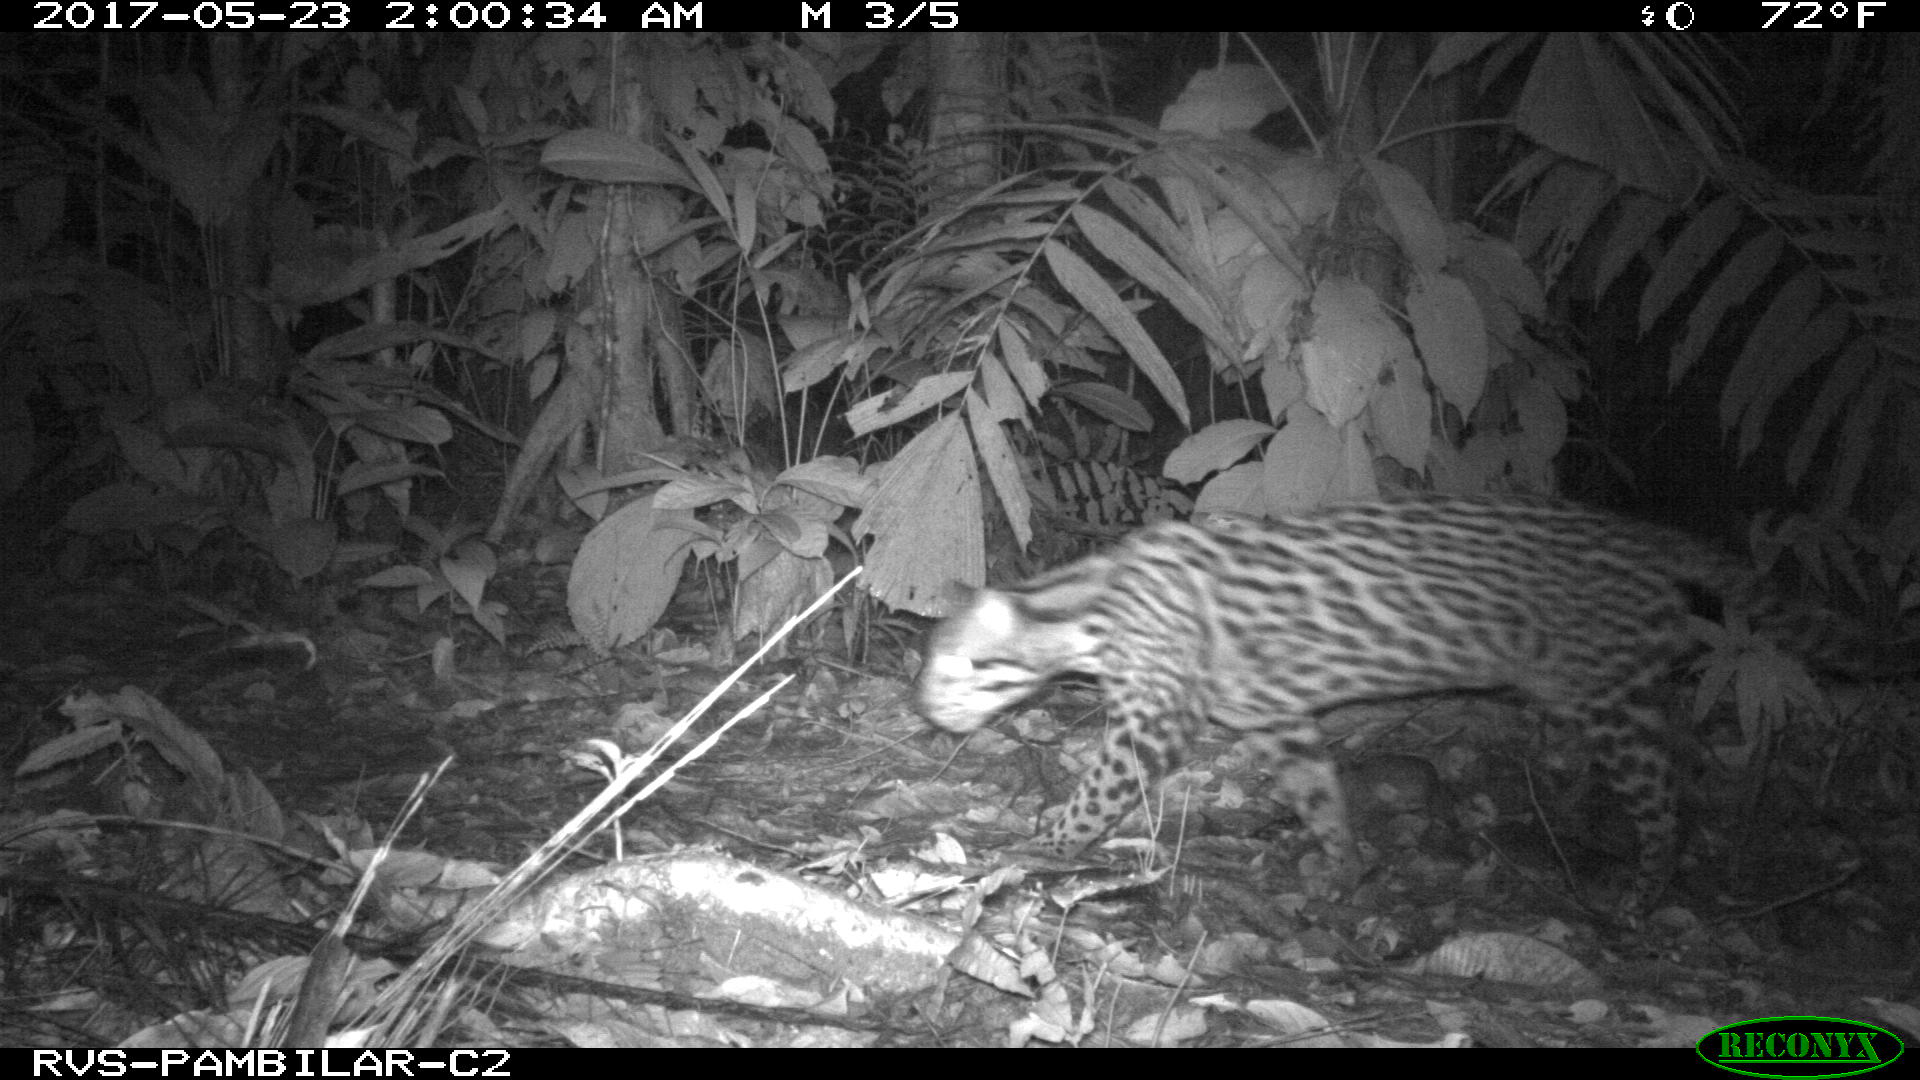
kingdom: Animalia
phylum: Chordata
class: Mammalia
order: Carnivora
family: Felidae
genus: Leopardus
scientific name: Leopardus pardalis
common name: Ocelot
